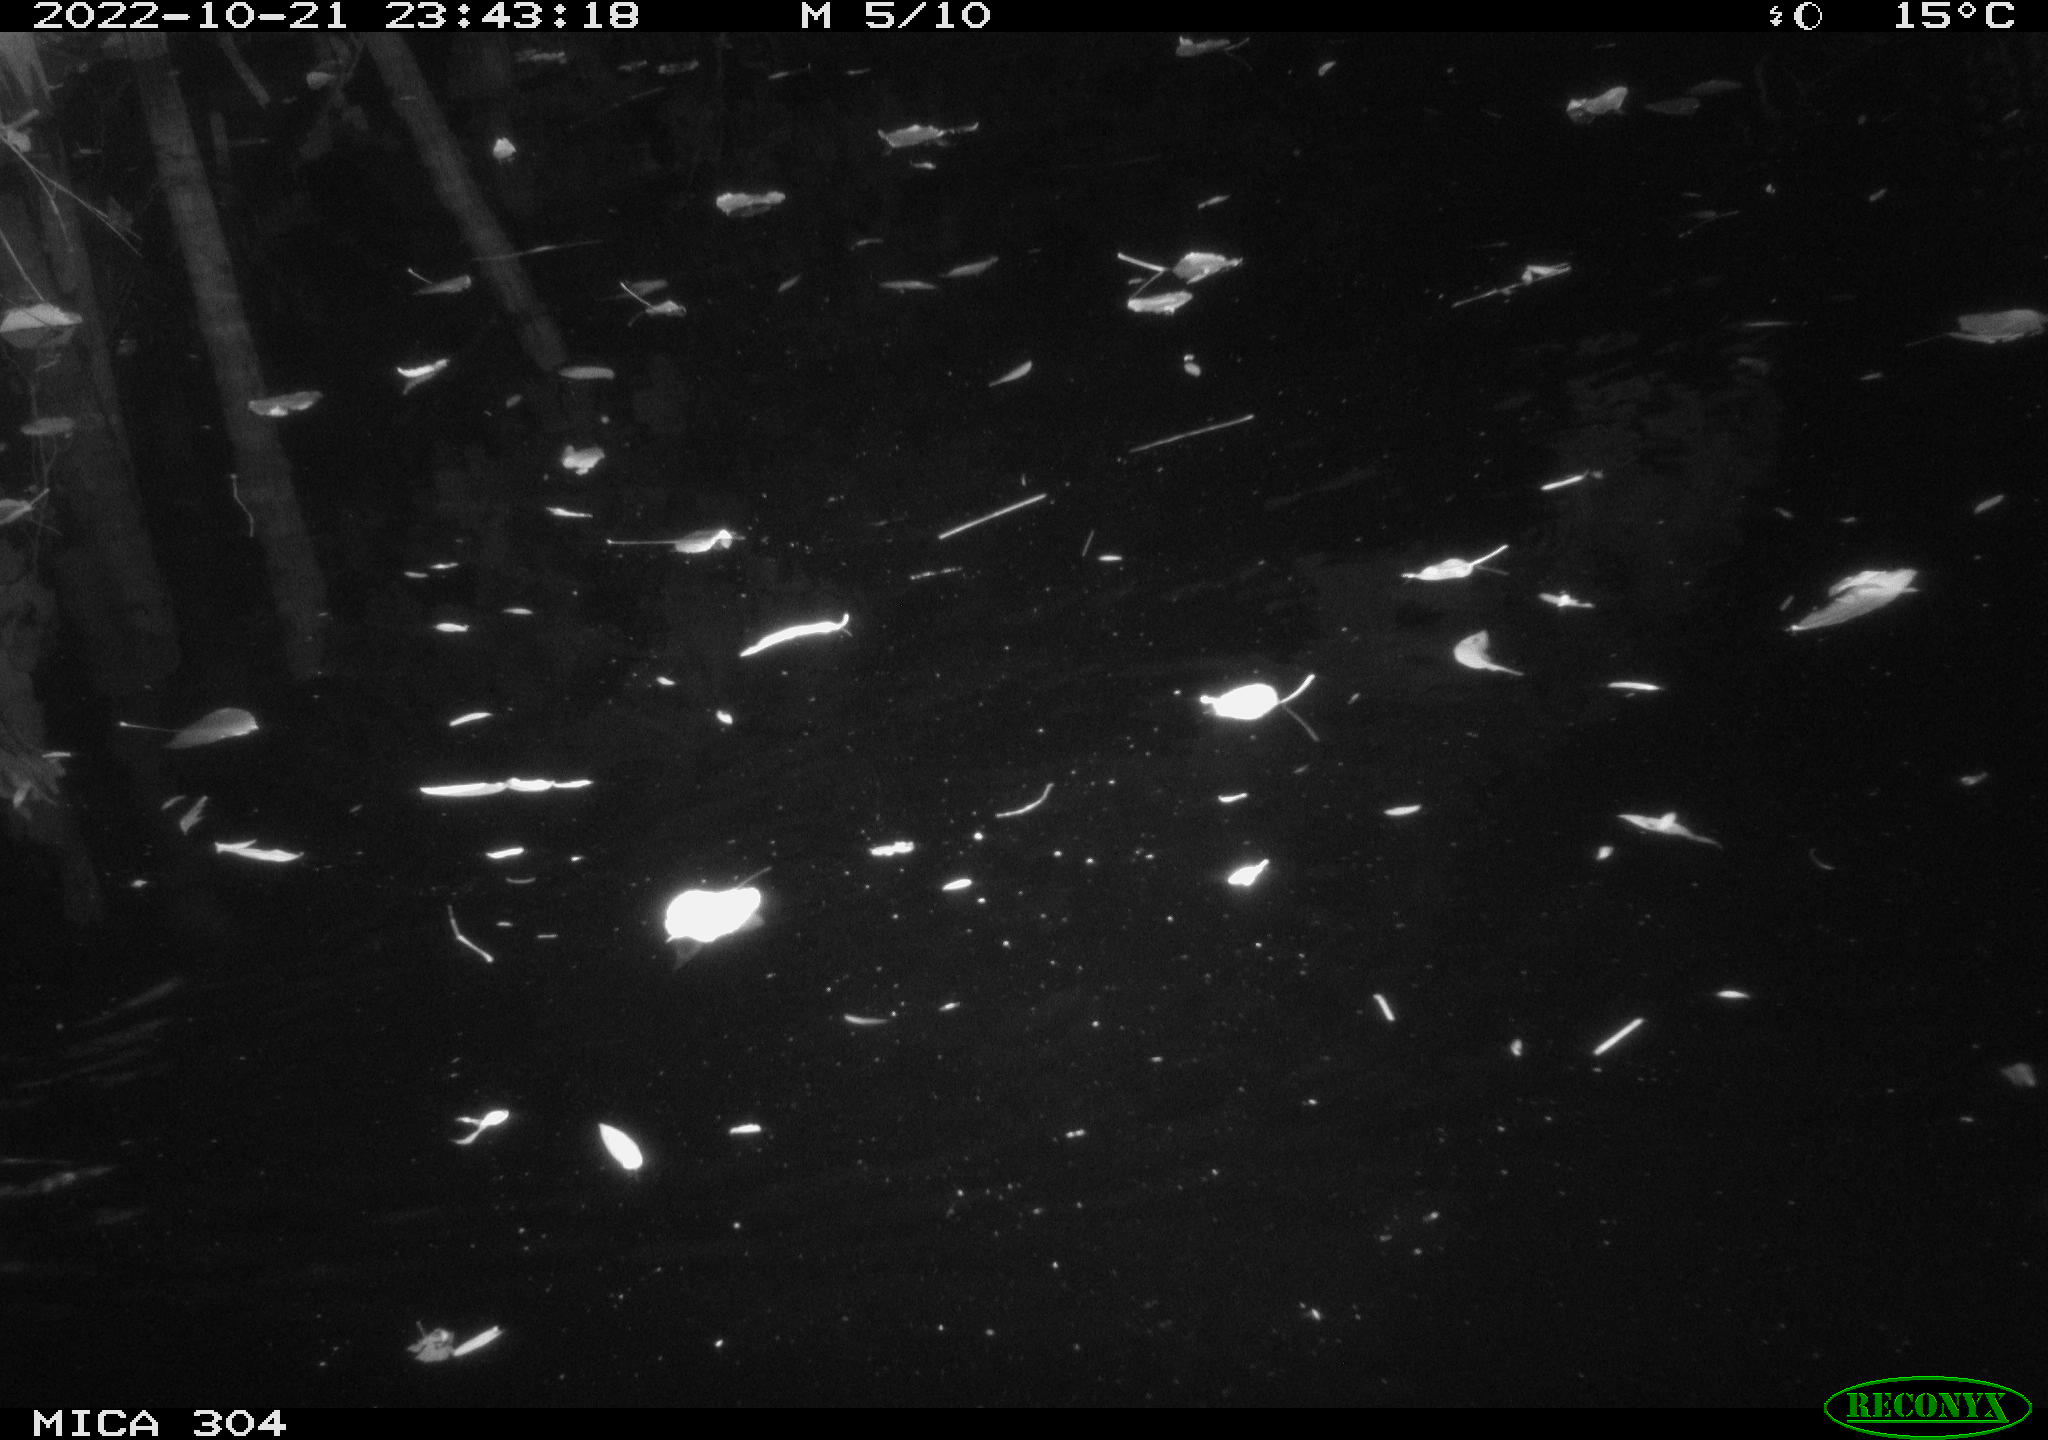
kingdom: Animalia
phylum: Chordata
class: Mammalia
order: Rodentia
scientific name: Rodentia
